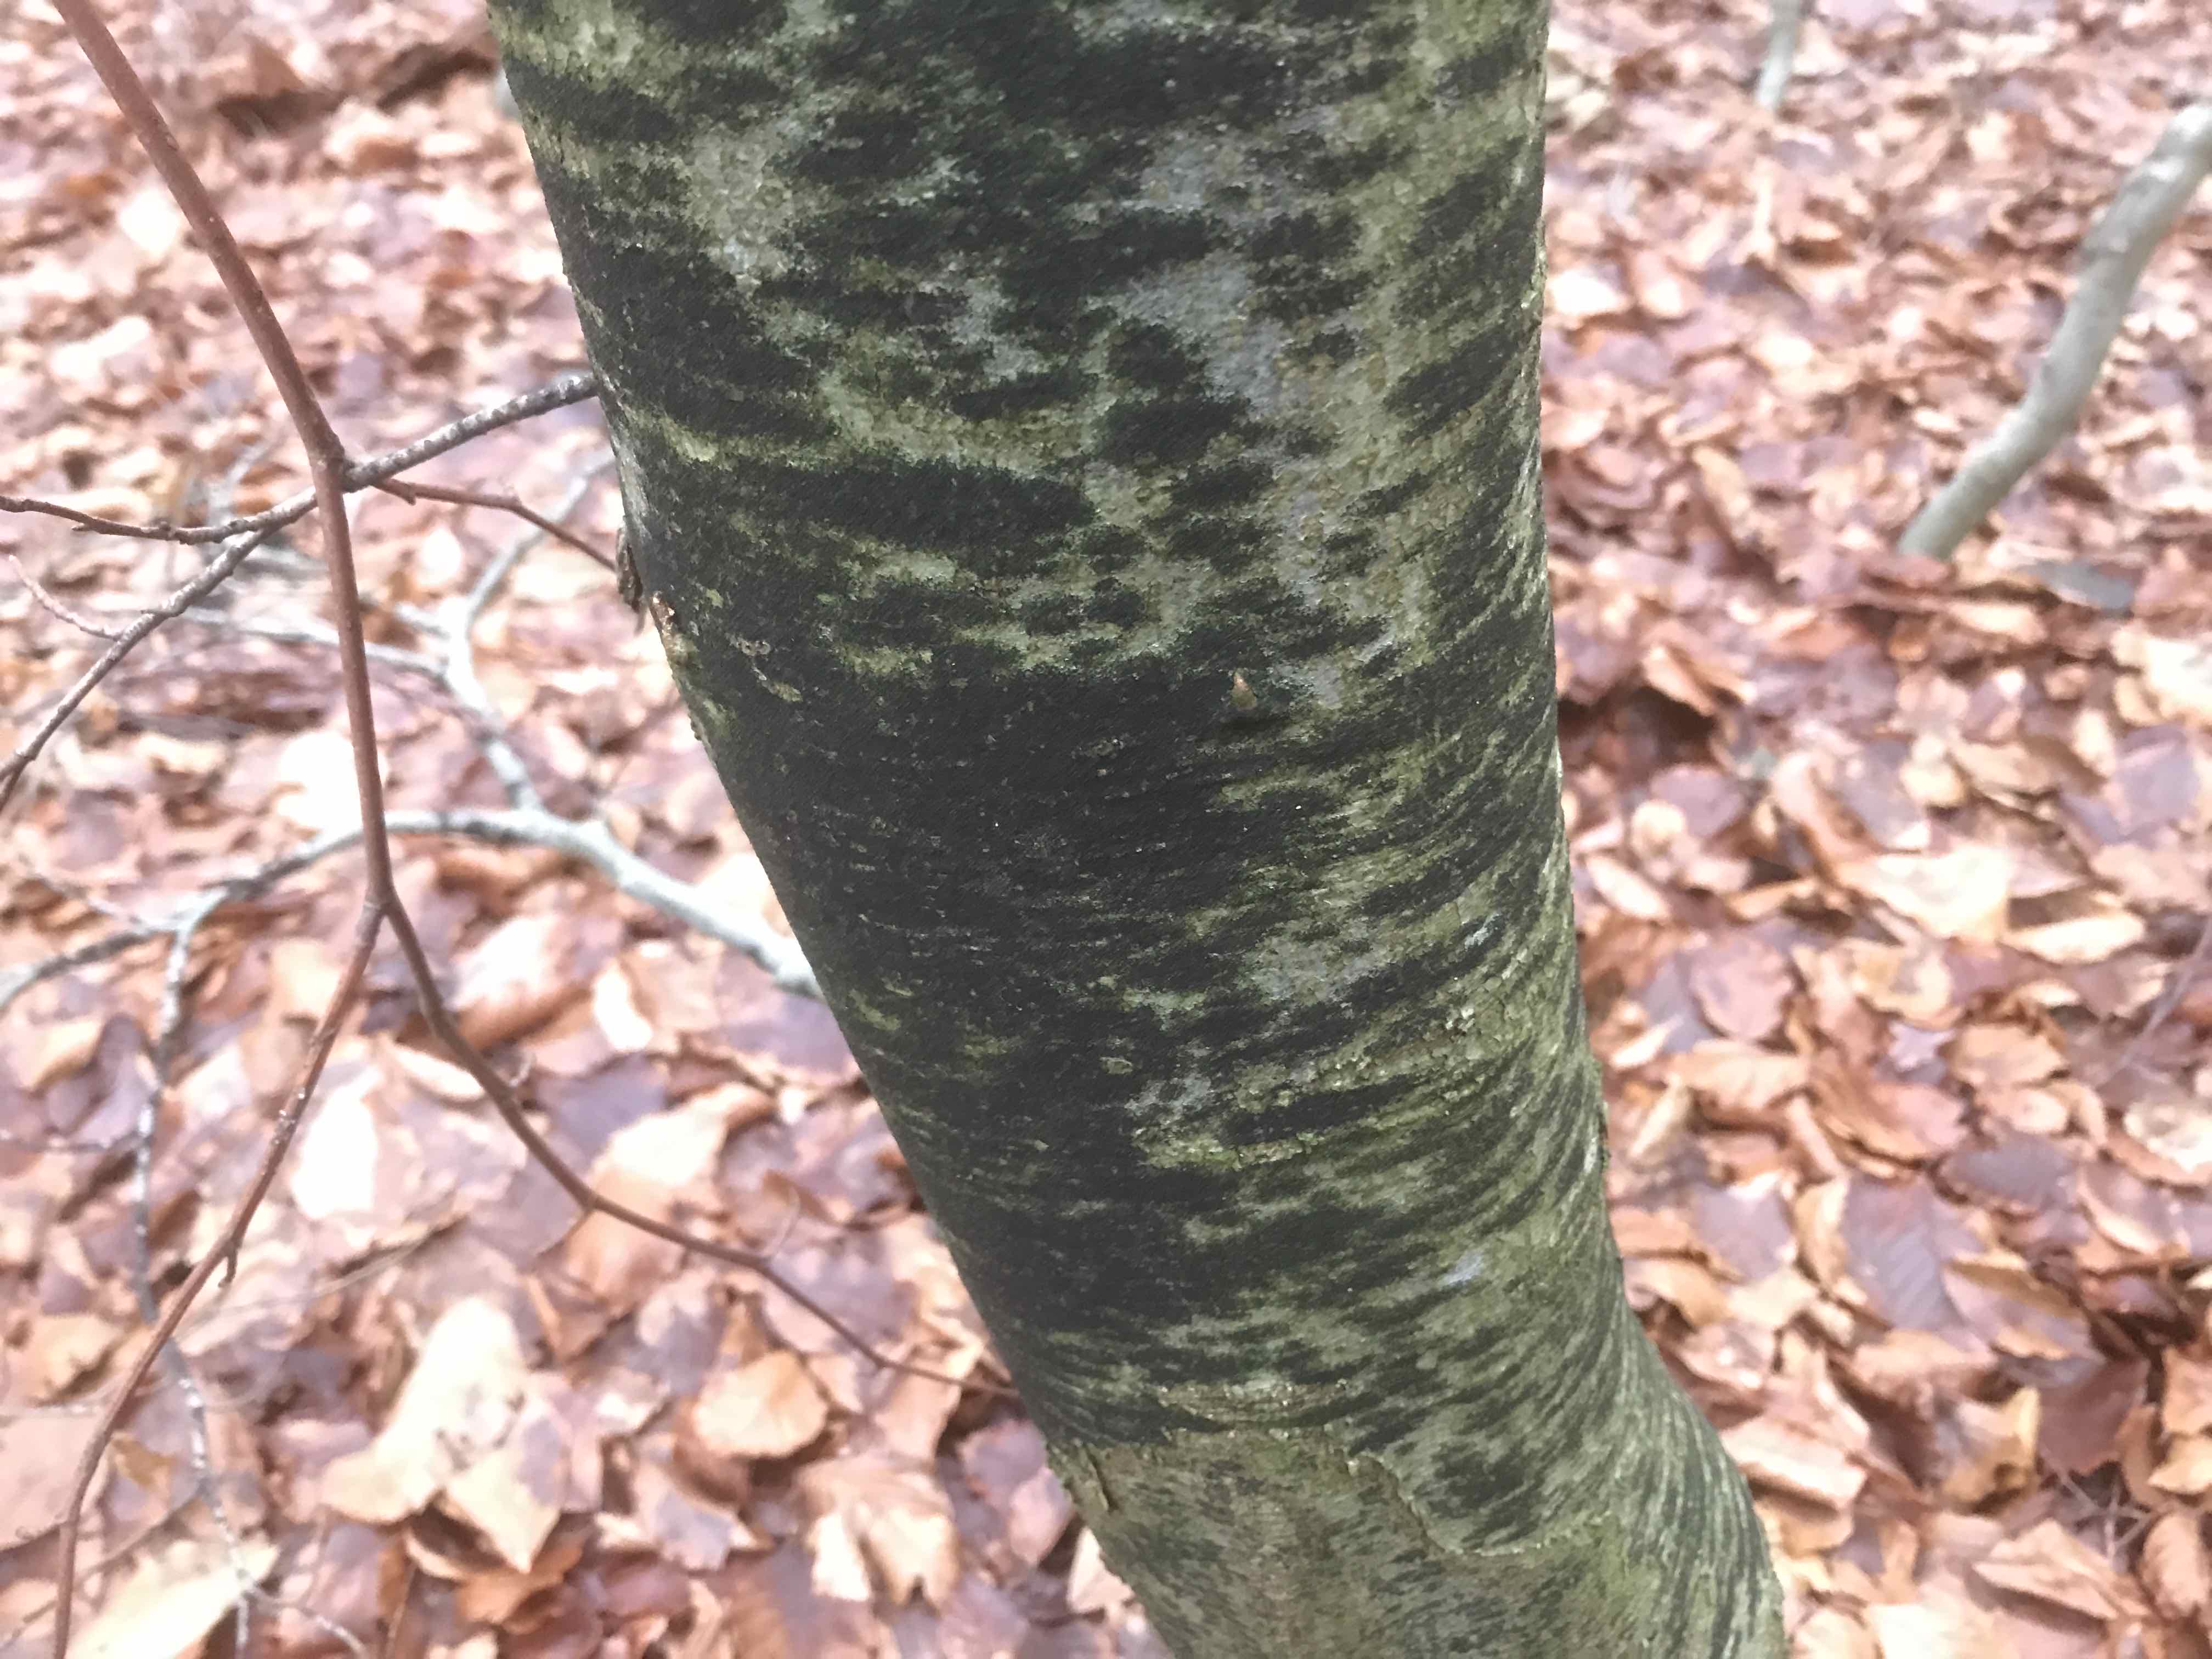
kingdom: Fungi
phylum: Ascomycota
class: Leotiomycetes
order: Rhytismatales
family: Ascodichaenaceae
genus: Ascodichaena
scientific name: Ascodichaena rugosa
